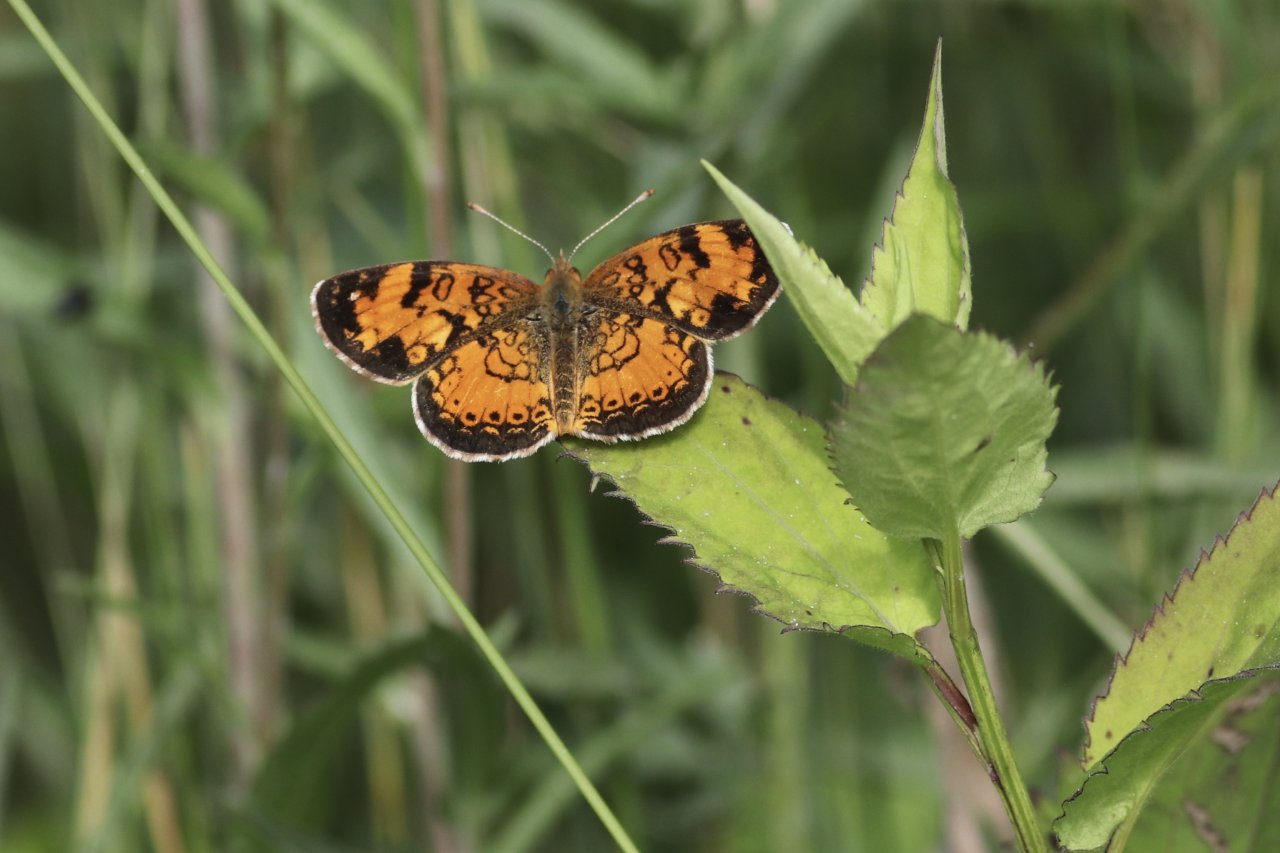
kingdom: Animalia
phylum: Arthropoda
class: Insecta
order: Lepidoptera
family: Nymphalidae
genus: Phyciodes
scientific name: Phyciodes tharos
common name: Northern Crescent
